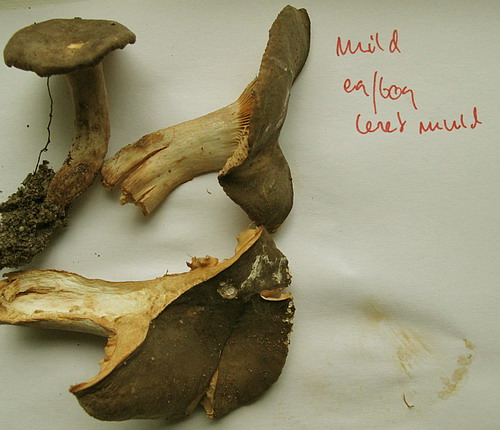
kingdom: Fungi
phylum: Basidiomycota
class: Agaricomycetes
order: Russulales
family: Russulaceae
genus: Lactarius
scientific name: Lactarius romagnesii
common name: fjernbladet mælkehat
